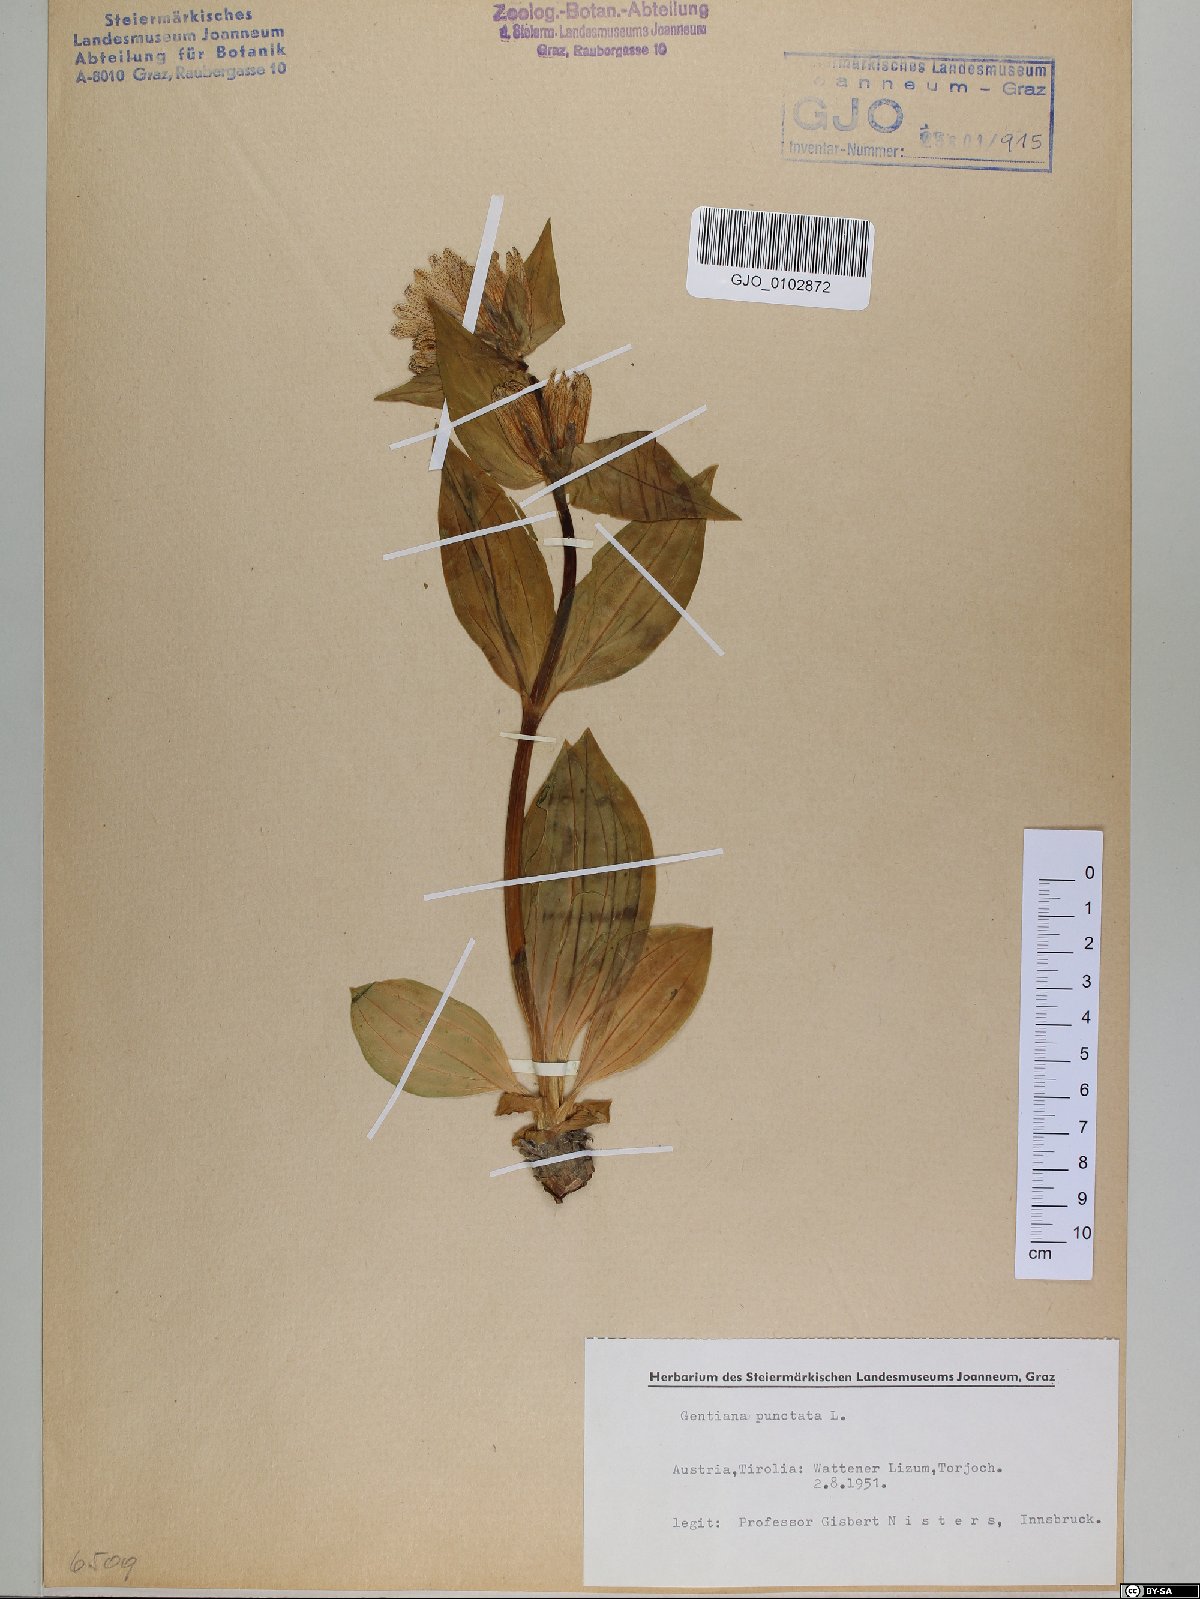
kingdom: Plantae
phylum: Tracheophyta
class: Magnoliopsida
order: Gentianales
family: Gentianaceae
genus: Gentiana
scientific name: Gentiana punctata
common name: Spotted gentian
